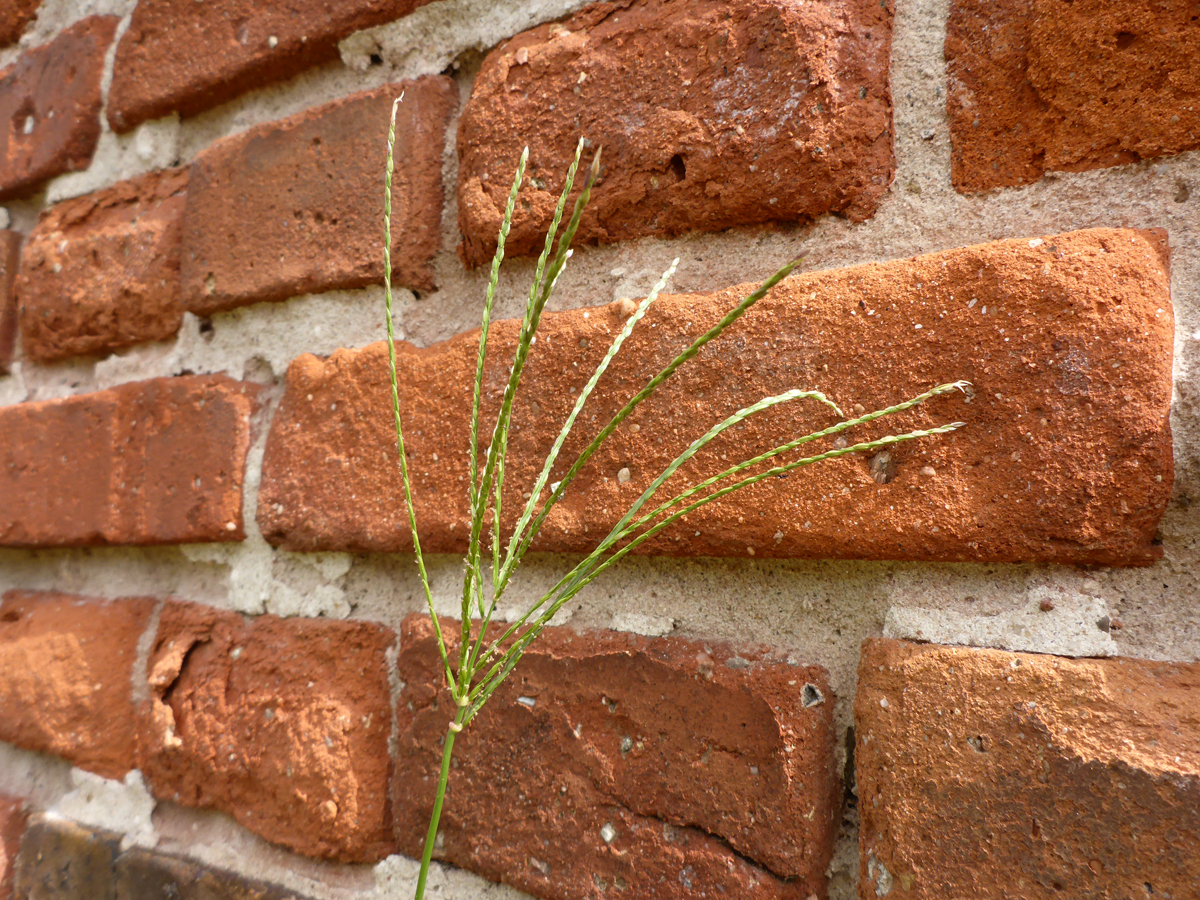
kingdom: Plantae
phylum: Tracheophyta
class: Liliopsida
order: Poales
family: Poaceae
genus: Cynodon
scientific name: Cynodon dactylon
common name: Bermuda grass
